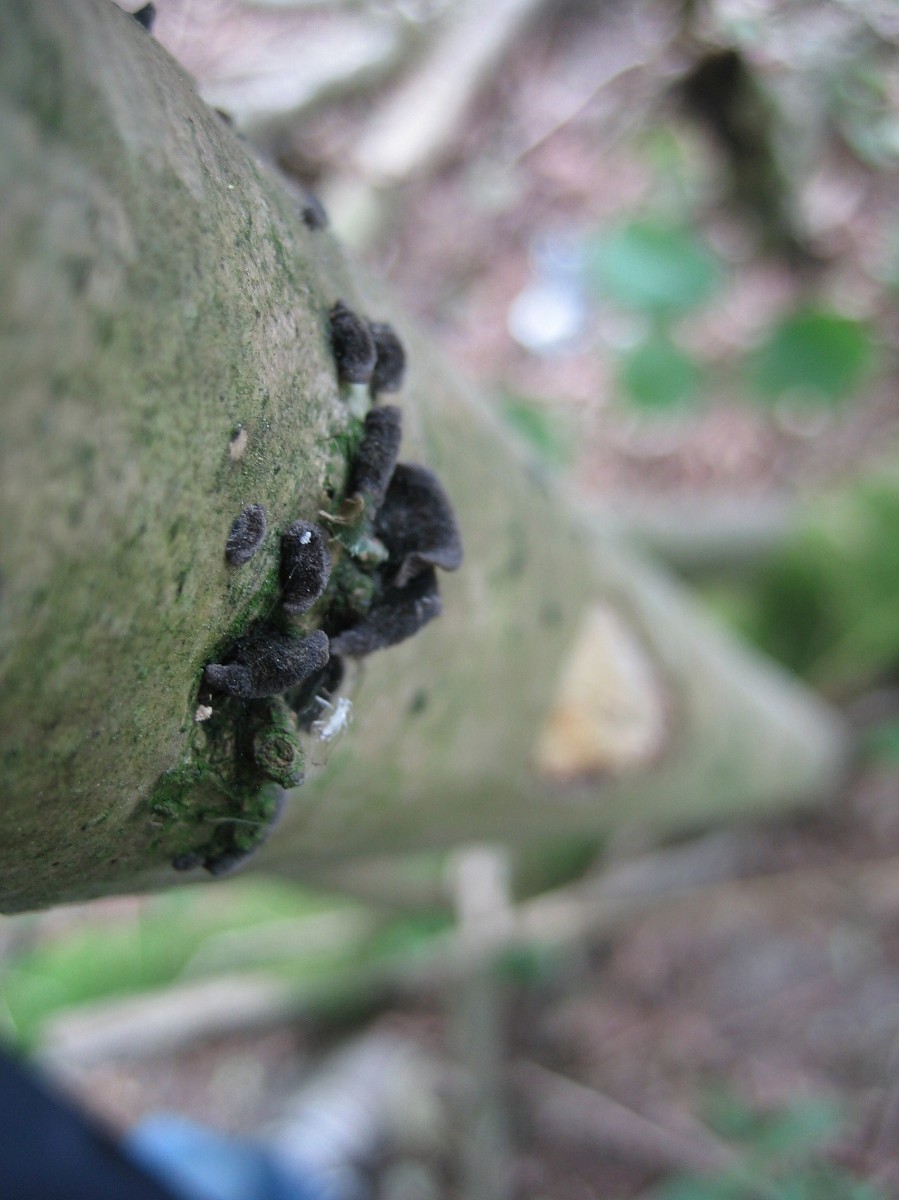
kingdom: Fungi
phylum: Basidiomycota
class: Agaricomycetes
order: Agaricales
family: Pleurotaceae
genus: Resupinatus
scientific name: Resupinatus trichotis
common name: mørkfiltet barkhat
